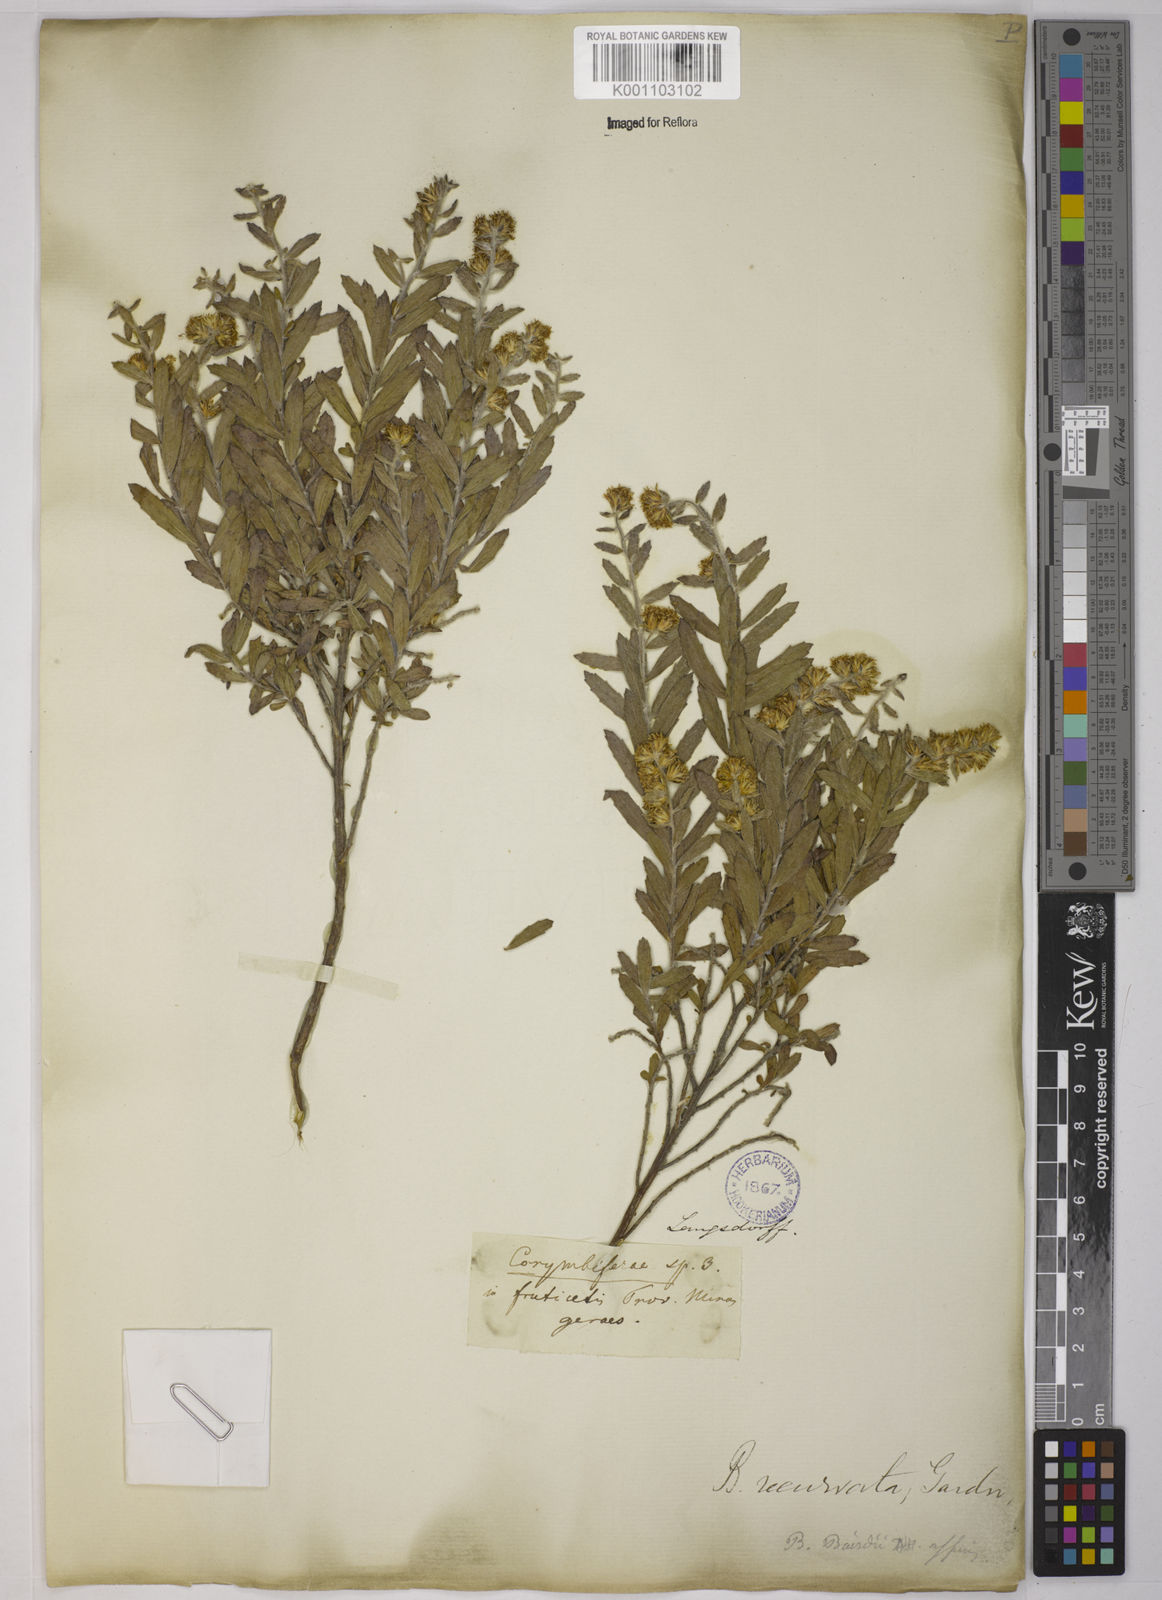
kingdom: Plantae
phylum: Tracheophyta
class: Magnoliopsida
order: Asterales
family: Asteraceae
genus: Baccharis
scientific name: Baccharis caprariifolia
